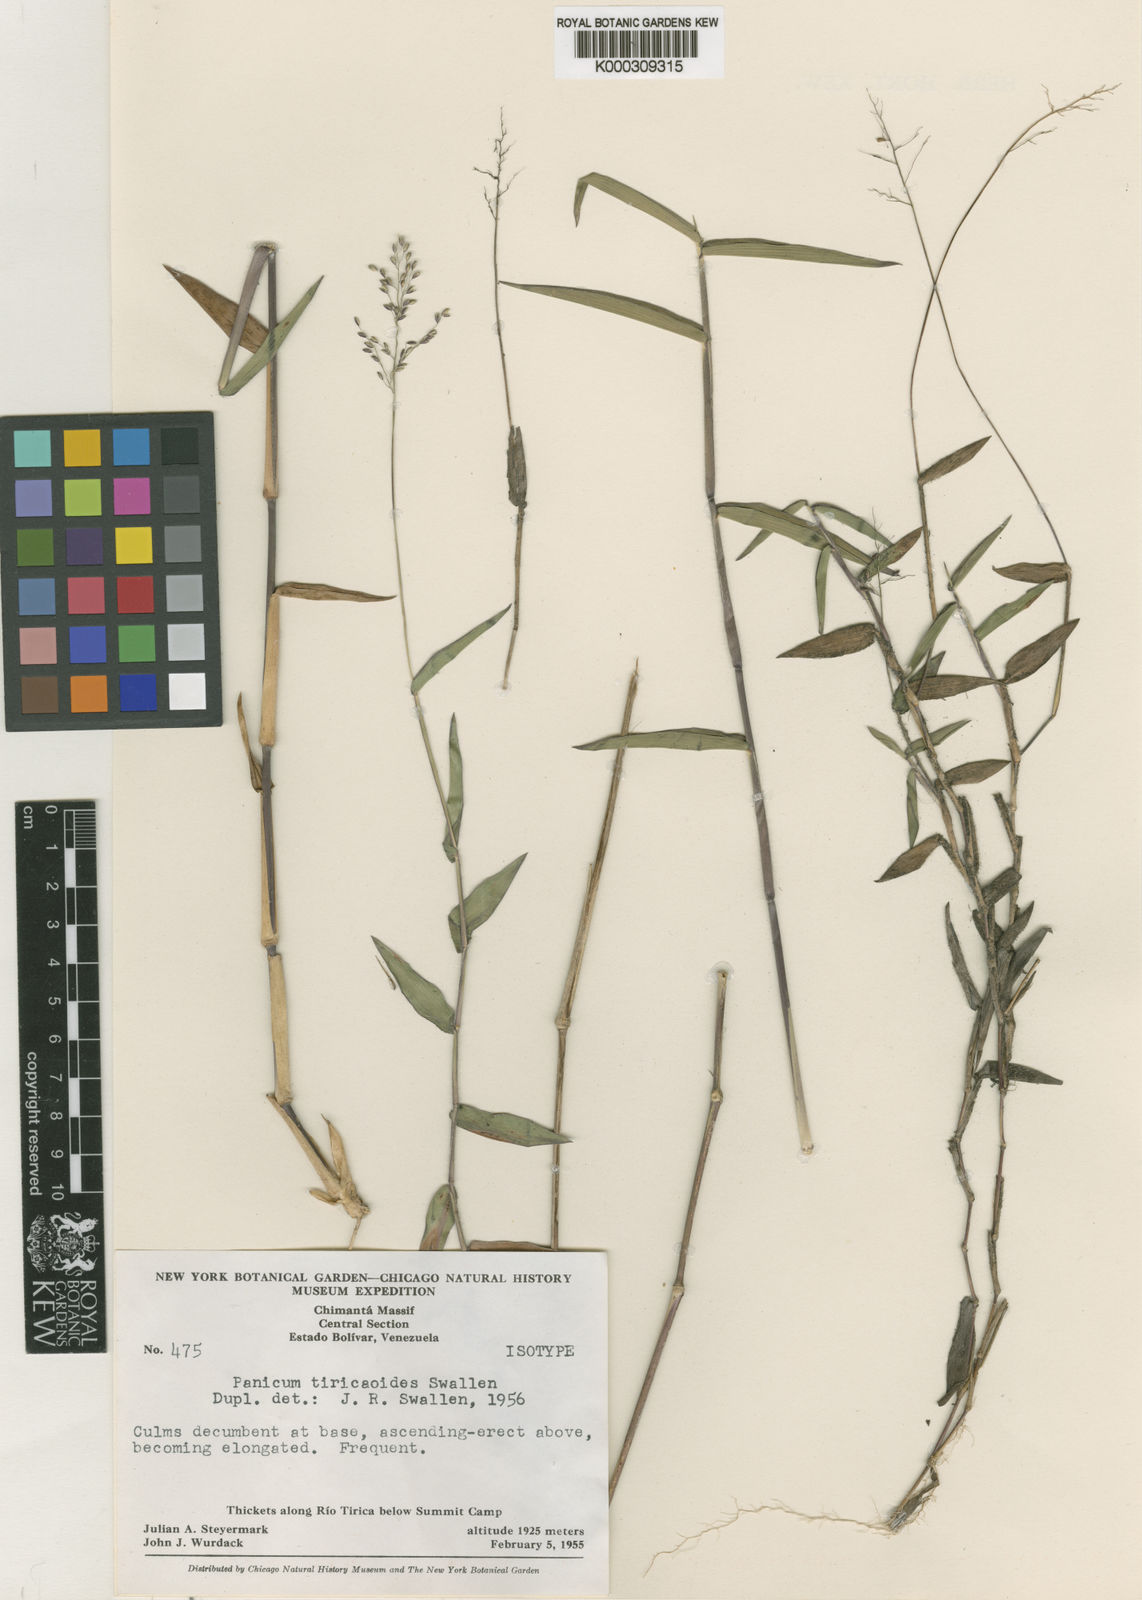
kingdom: Plantae
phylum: Tracheophyta
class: Liliopsida
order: Poales
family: Poaceae
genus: Dichanthelium
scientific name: Dichanthelium pycnoclados
